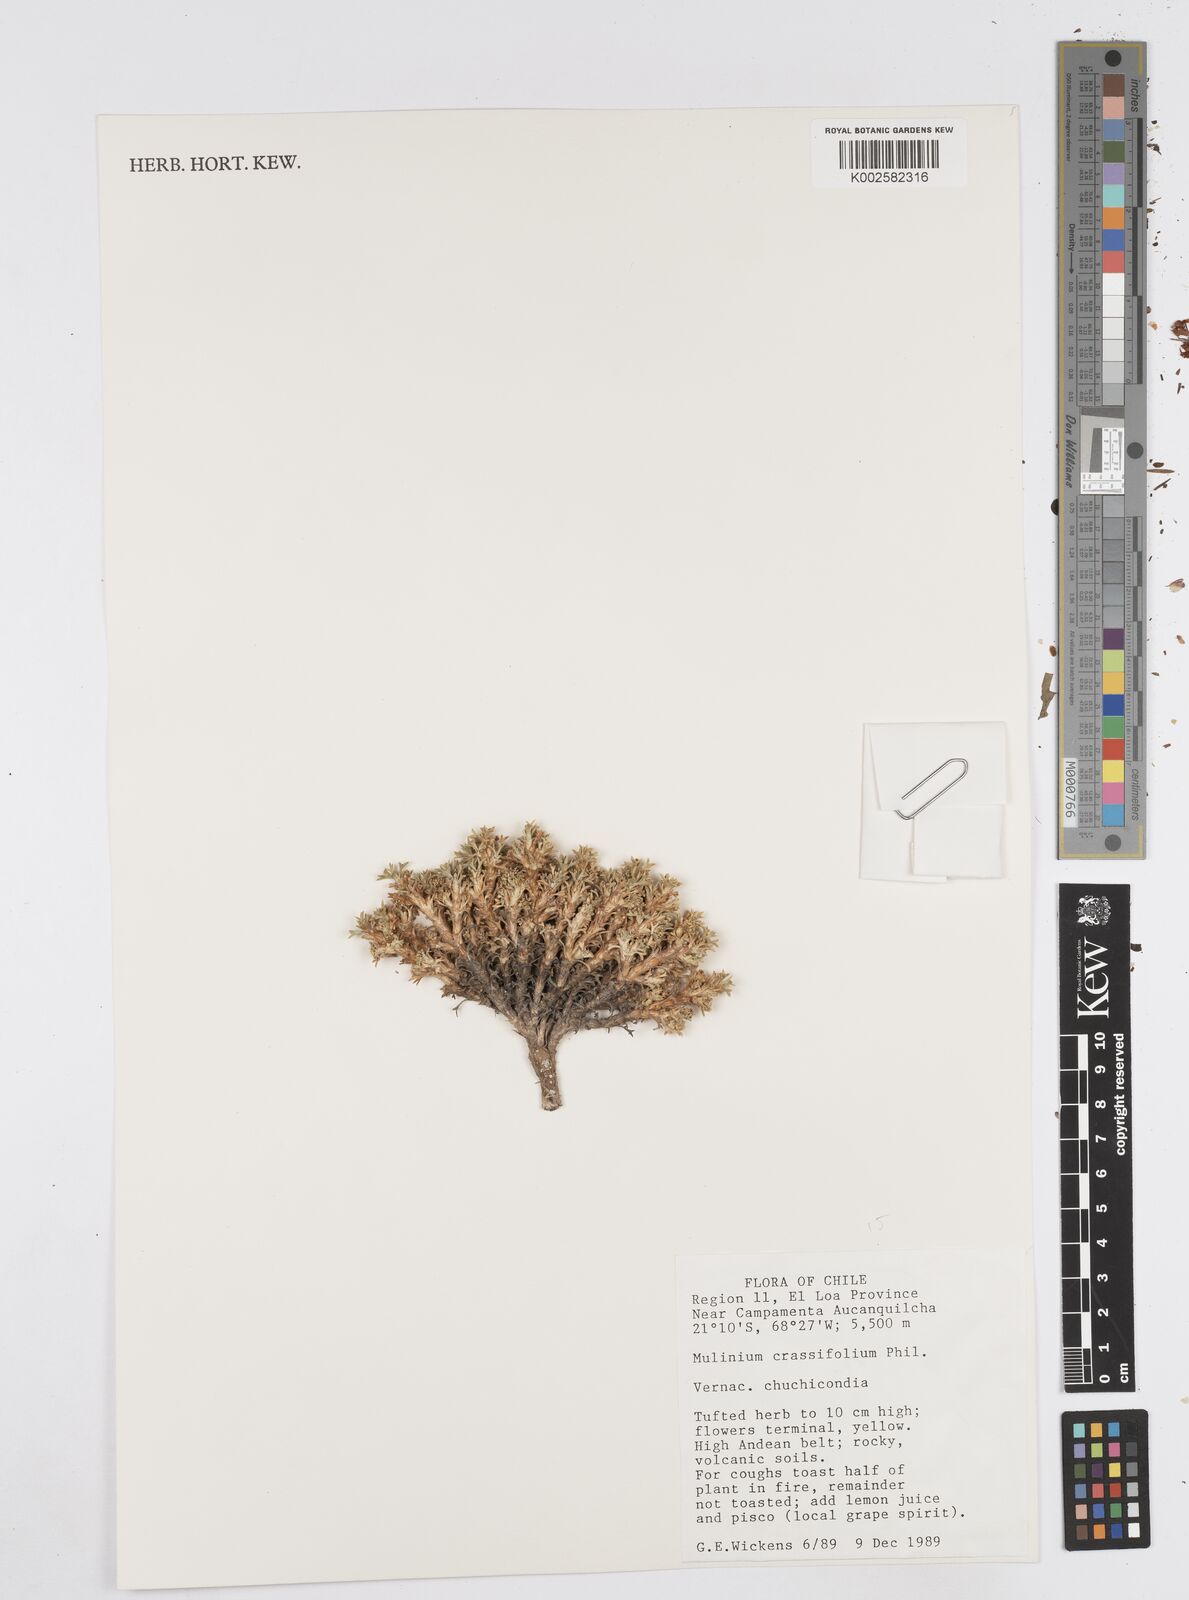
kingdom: Plantae
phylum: Tracheophyta
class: Magnoliopsida
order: Apiales
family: Apiaceae
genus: Azorella
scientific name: Azorella trisecta
